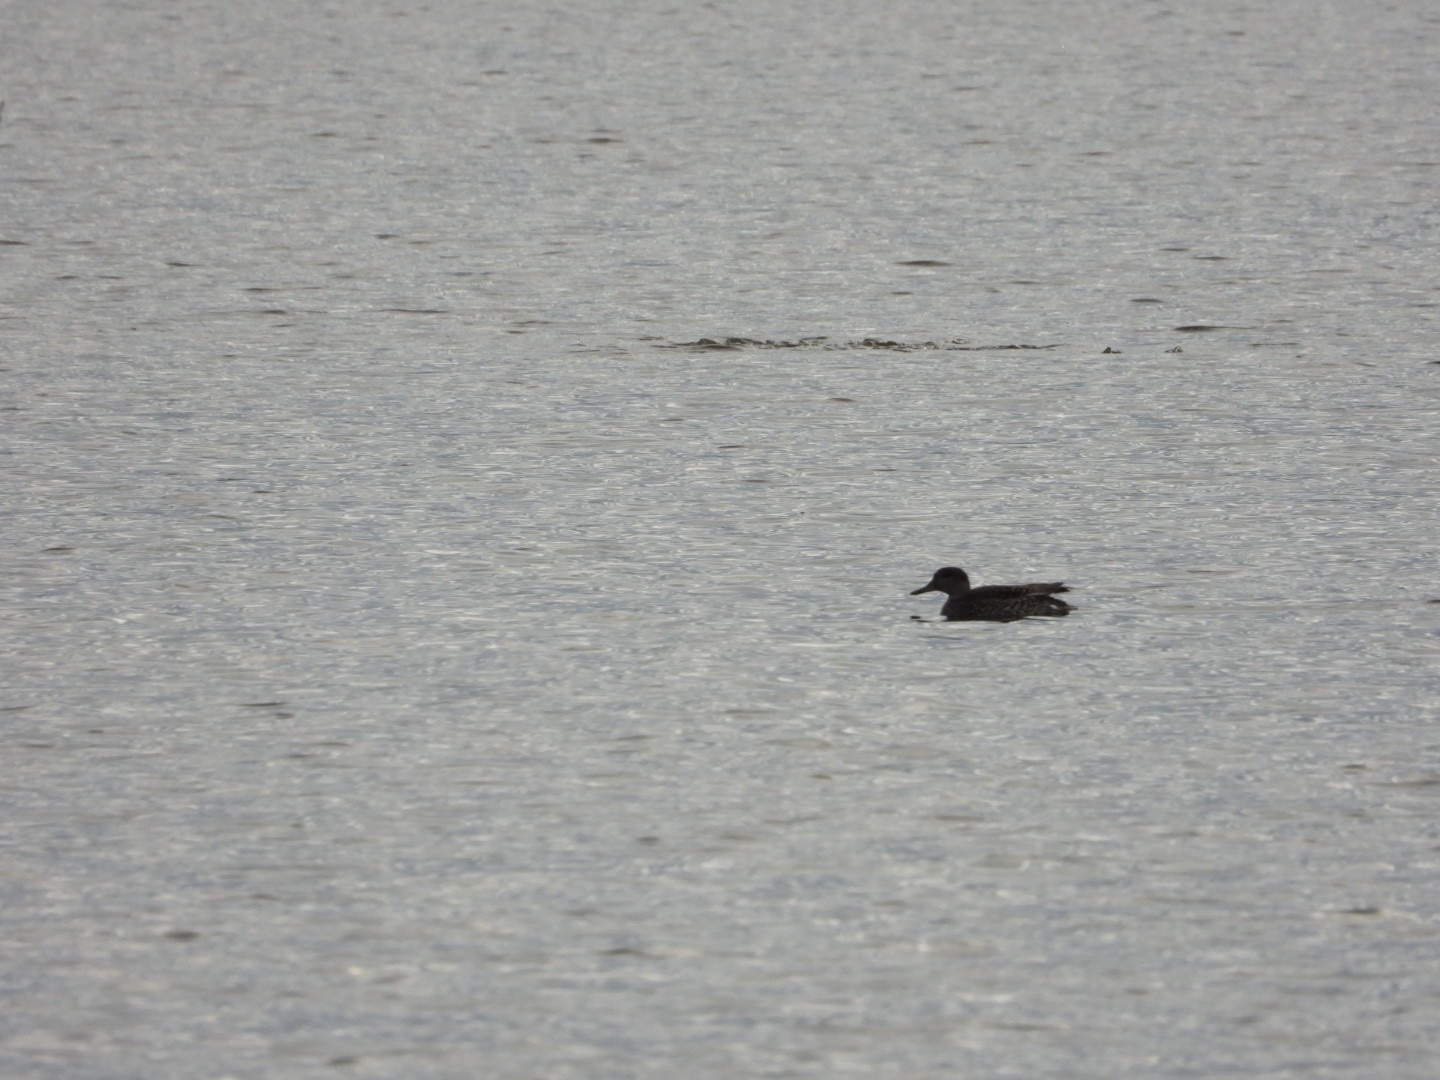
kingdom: Animalia
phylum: Chordata
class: Aves
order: Anseriformes
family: Anatidae
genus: Anas
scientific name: Anas crecca
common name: Krikand
